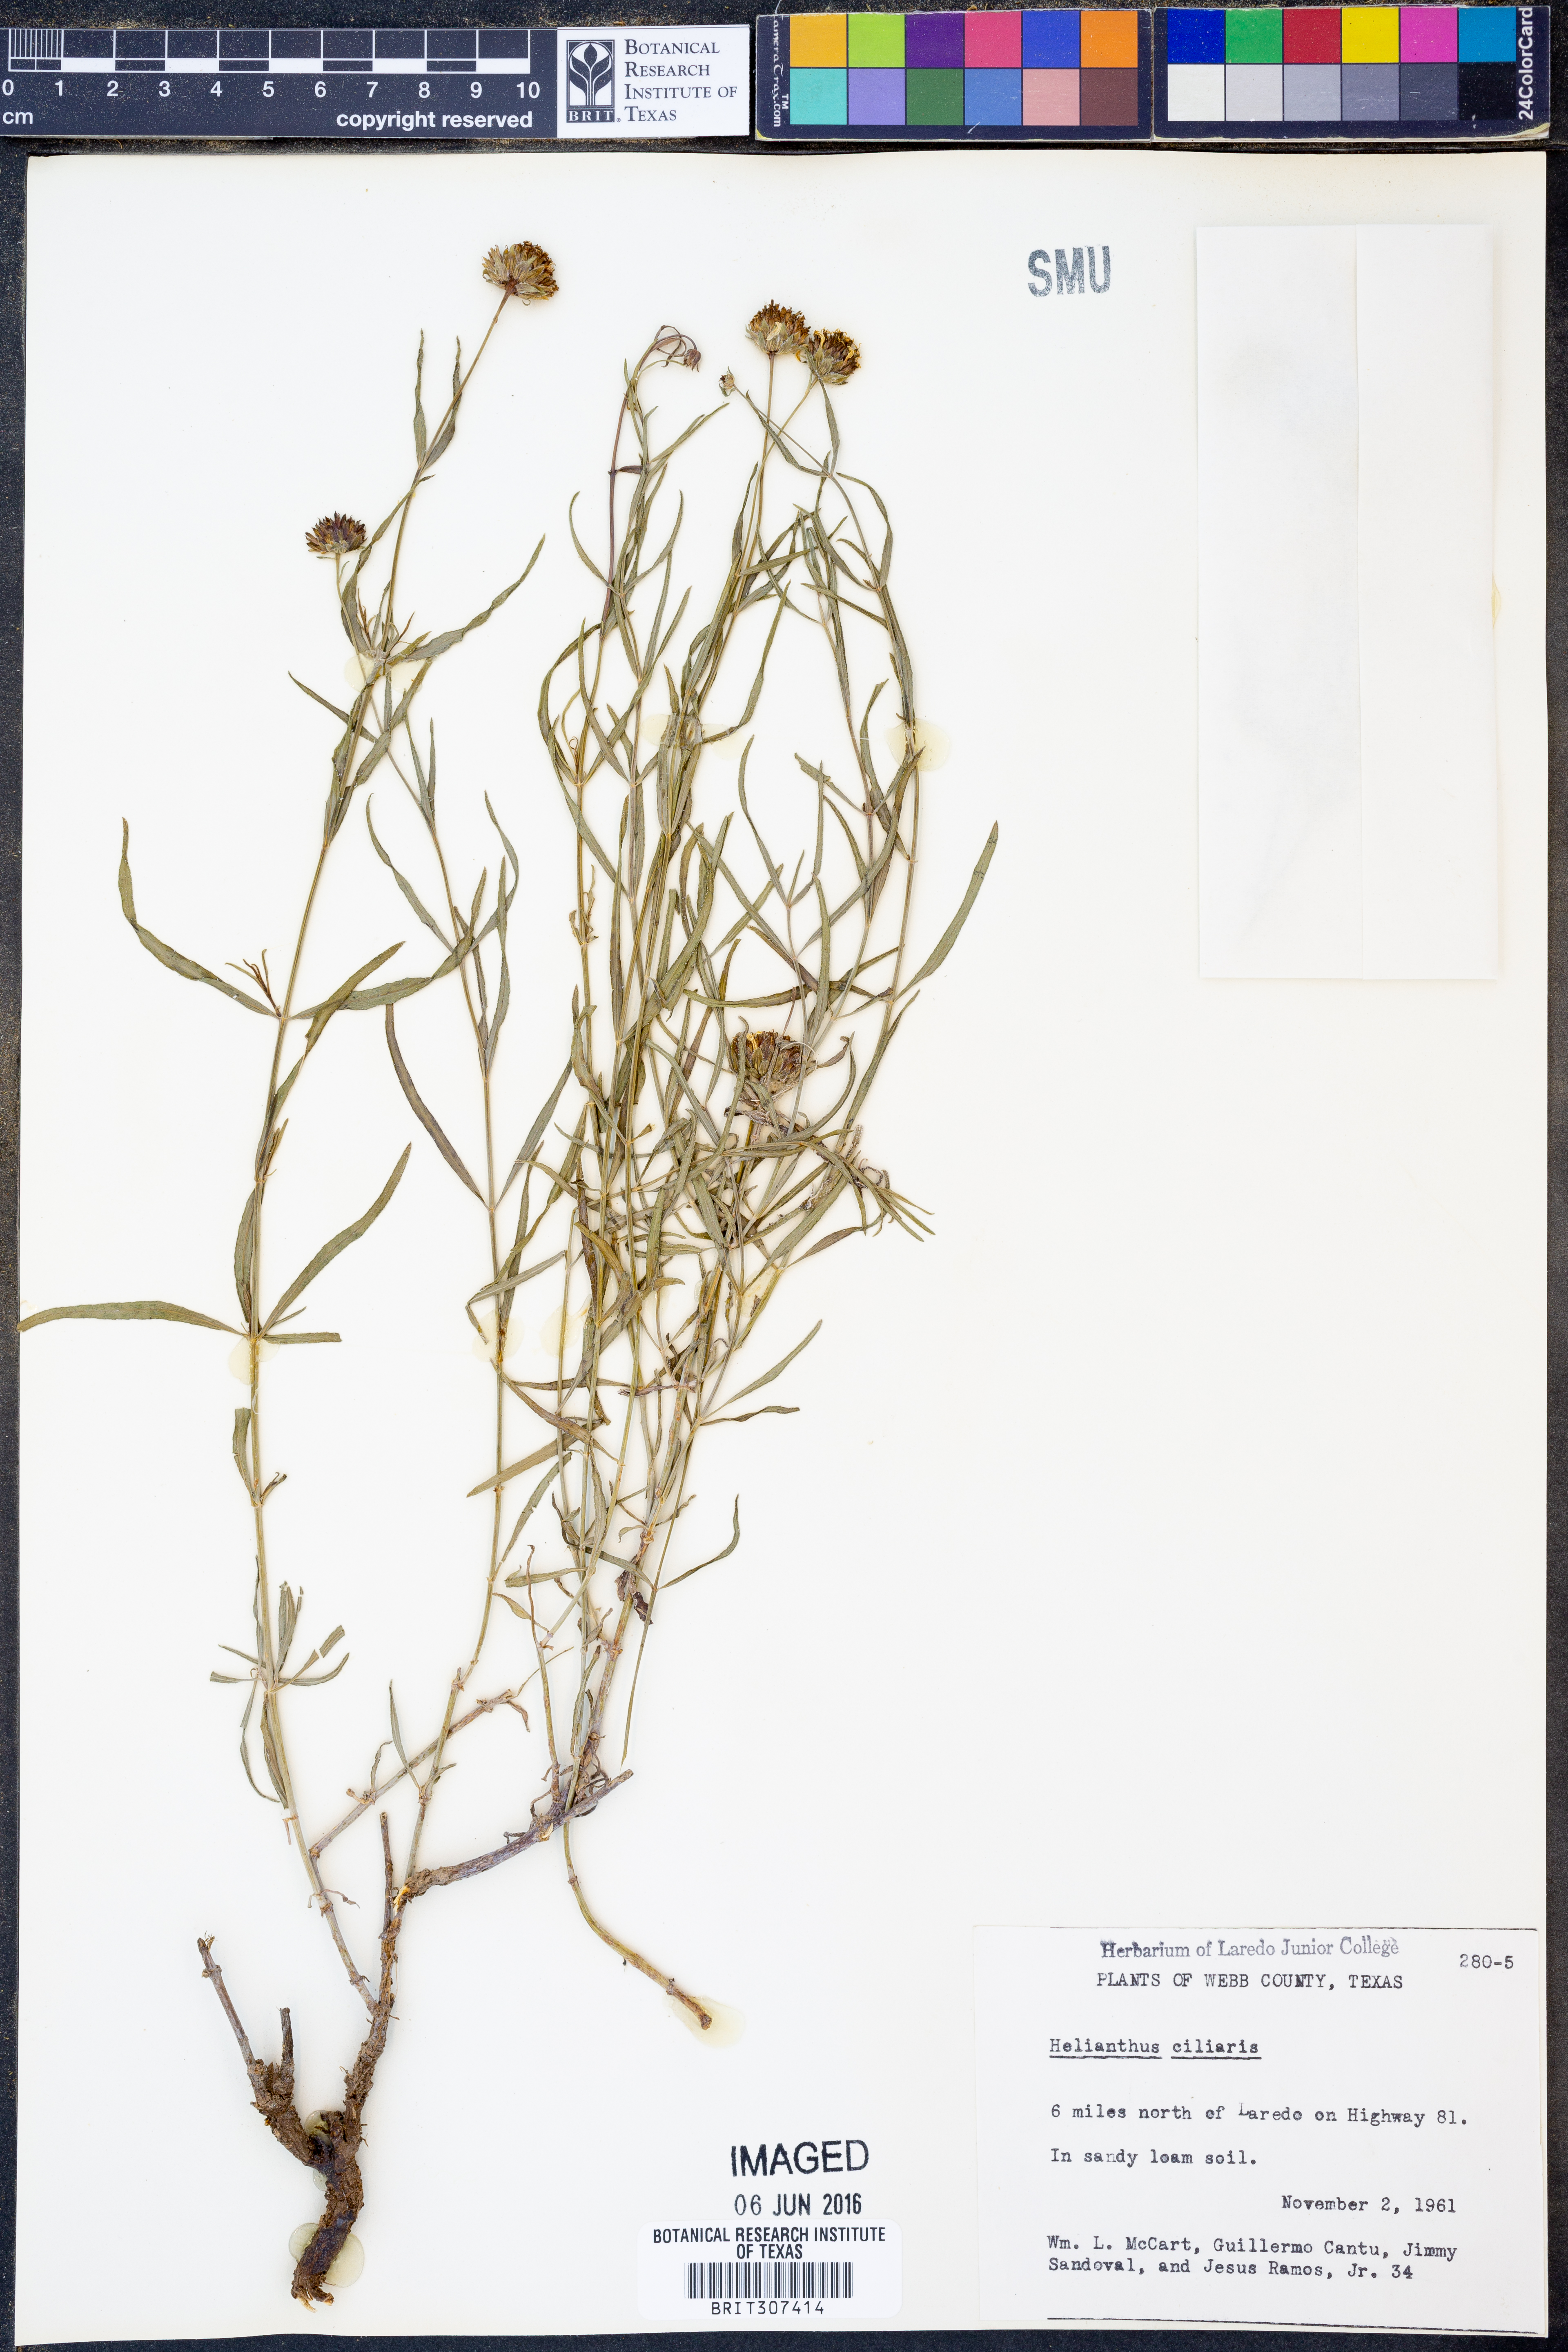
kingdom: Plantae
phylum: Tracheophyta
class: Magnoliopsida
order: Asterales
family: Asteraceae
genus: Helianthus
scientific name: Helianthus ciliaris
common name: Texas blueweed
